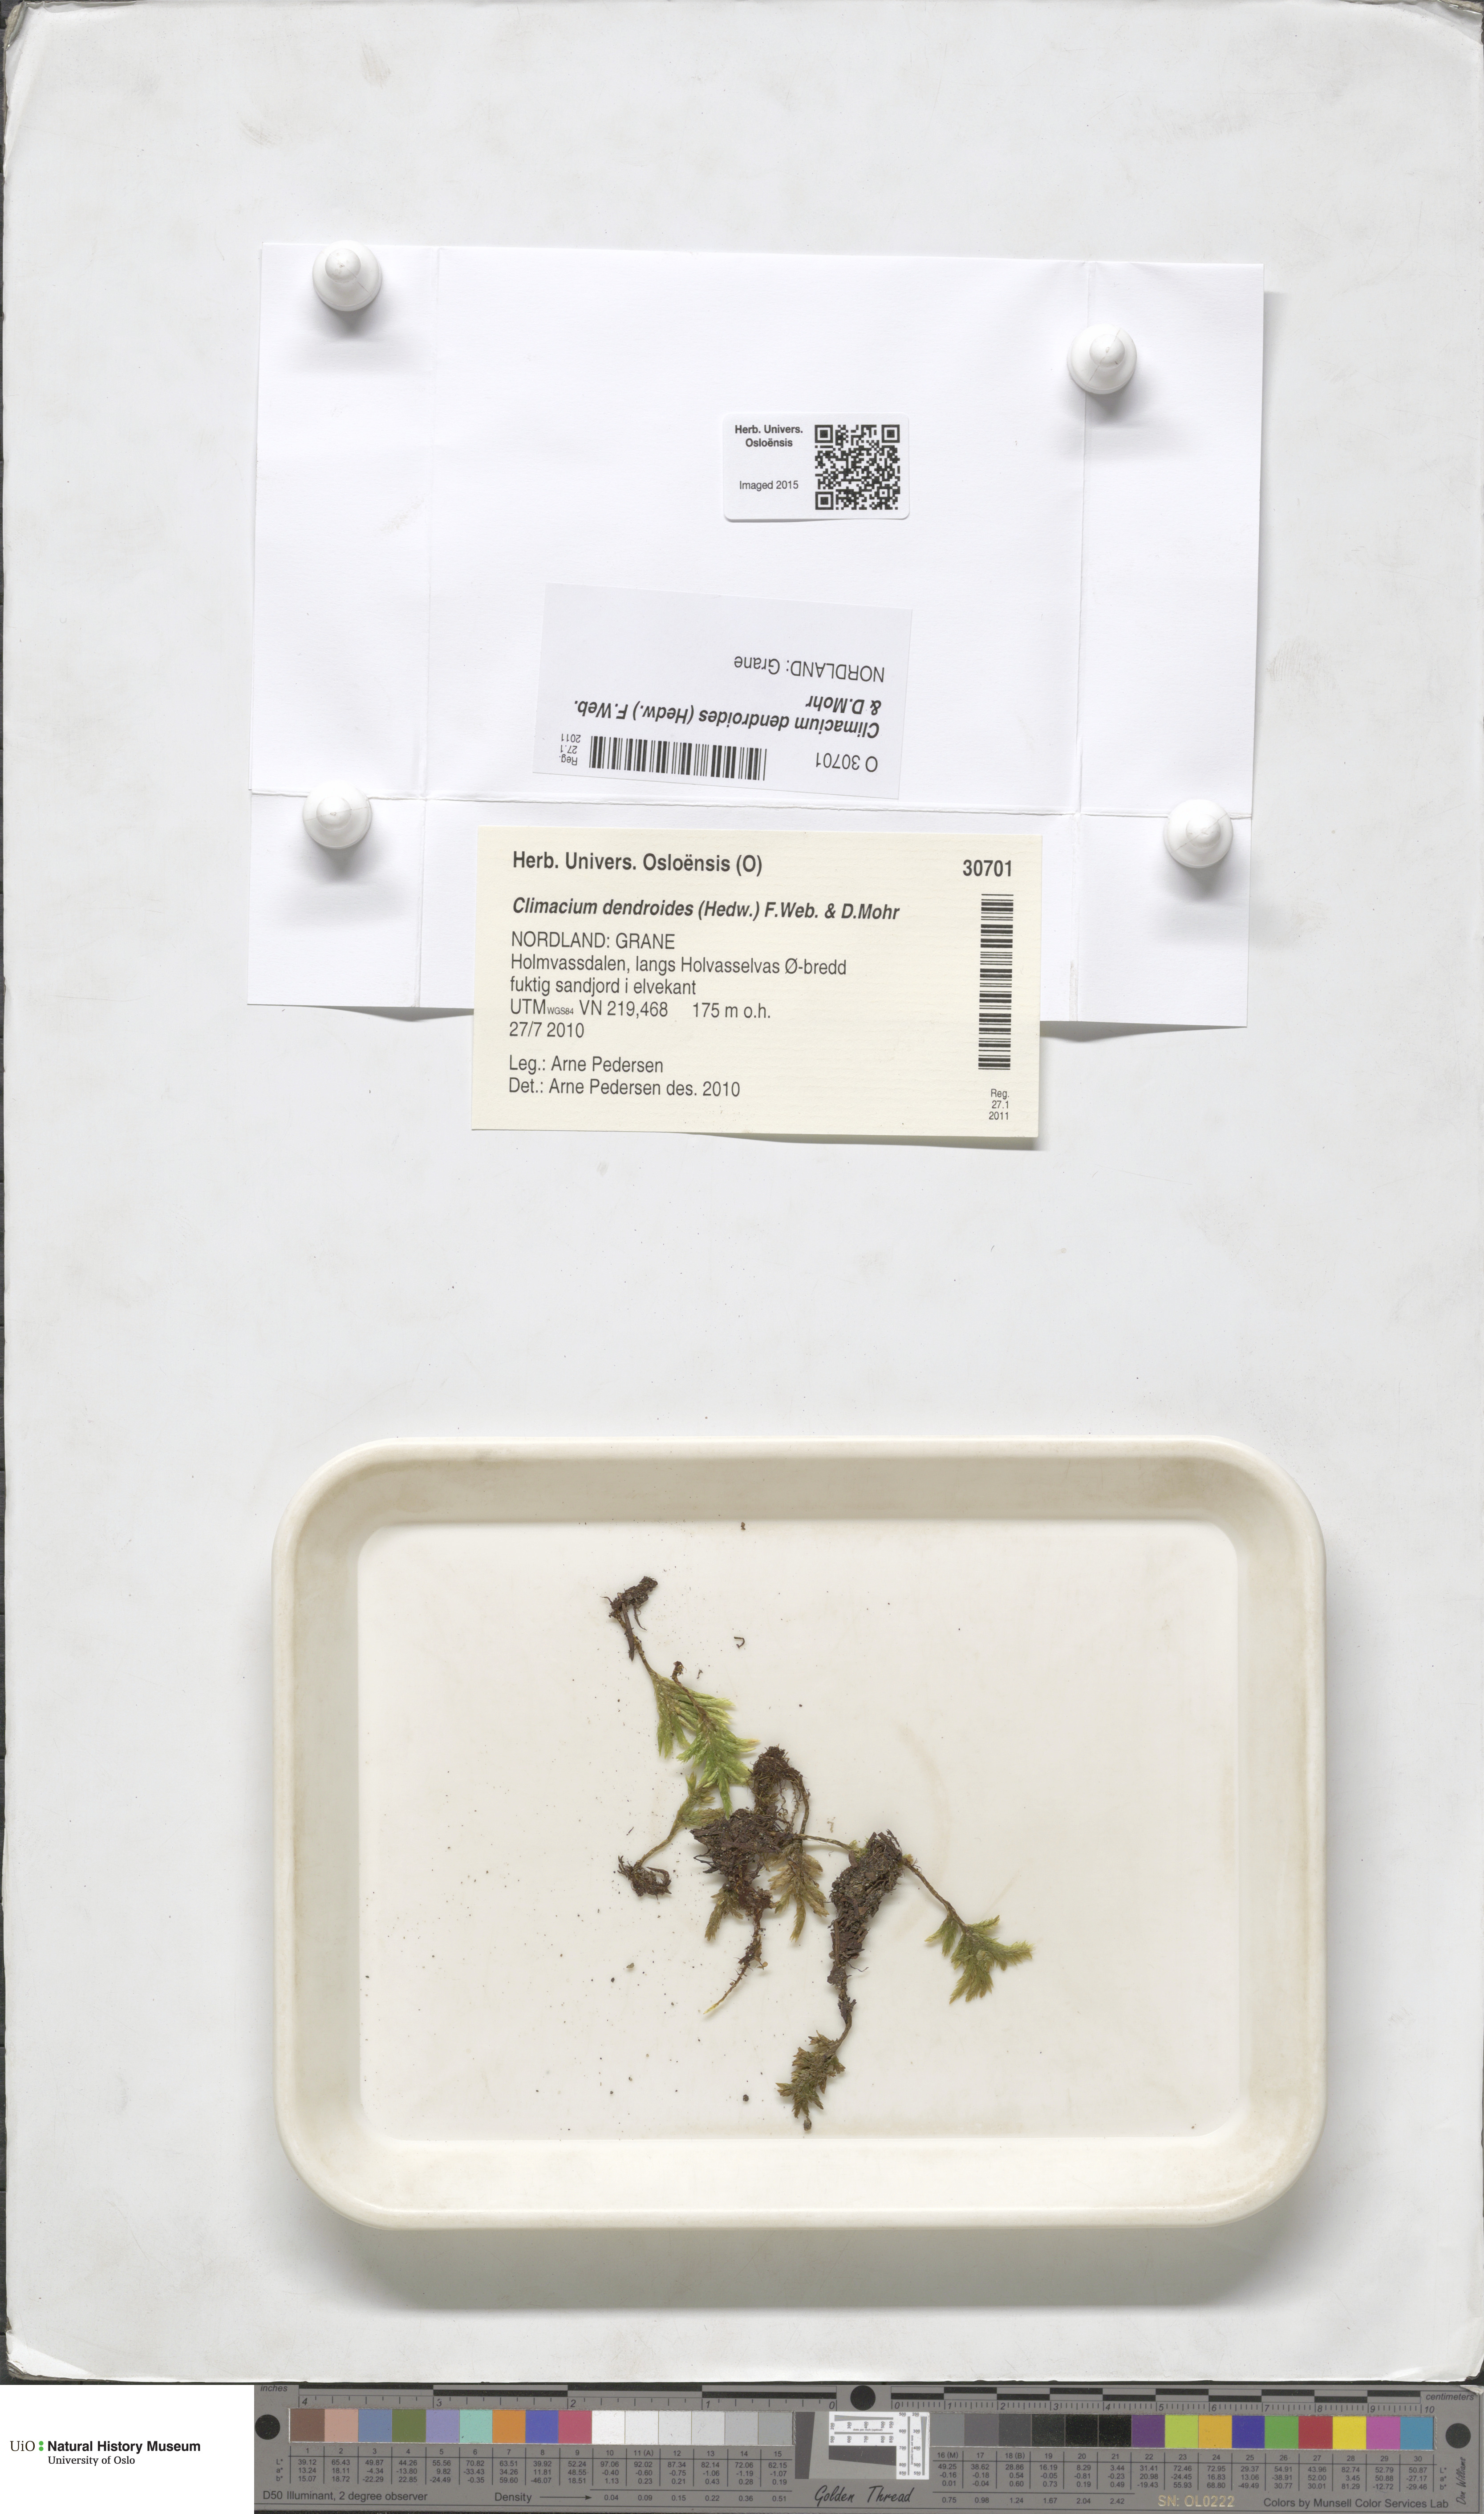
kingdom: Plantae
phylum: Bryophyta
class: Bryopsida
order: Hypnales
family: Climaciaceae
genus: Climacium
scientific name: Climacium dendroides
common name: Northern tree moss
